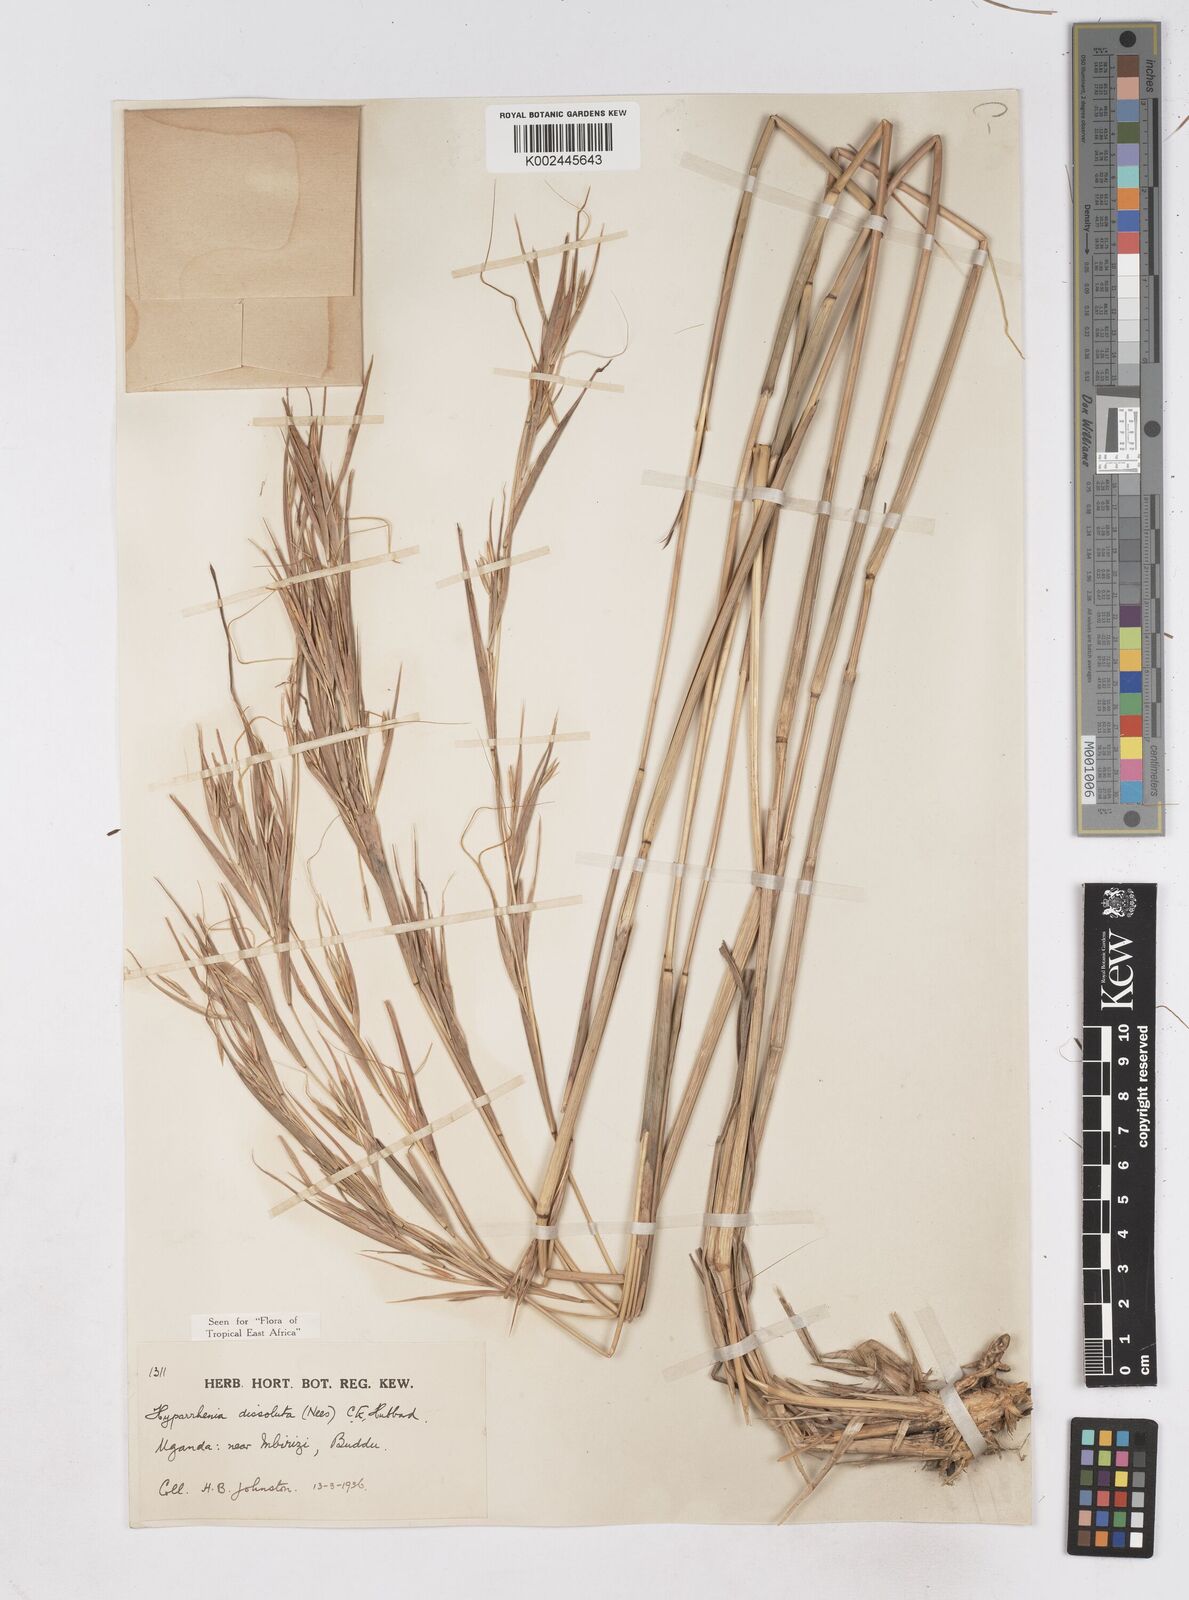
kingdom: Plantae
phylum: Tracheophyta
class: Liliopsida
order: Poales
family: Poaceae
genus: Hyperthelia
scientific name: Hyperthelia dissoluta
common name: Yellow thatching grass
